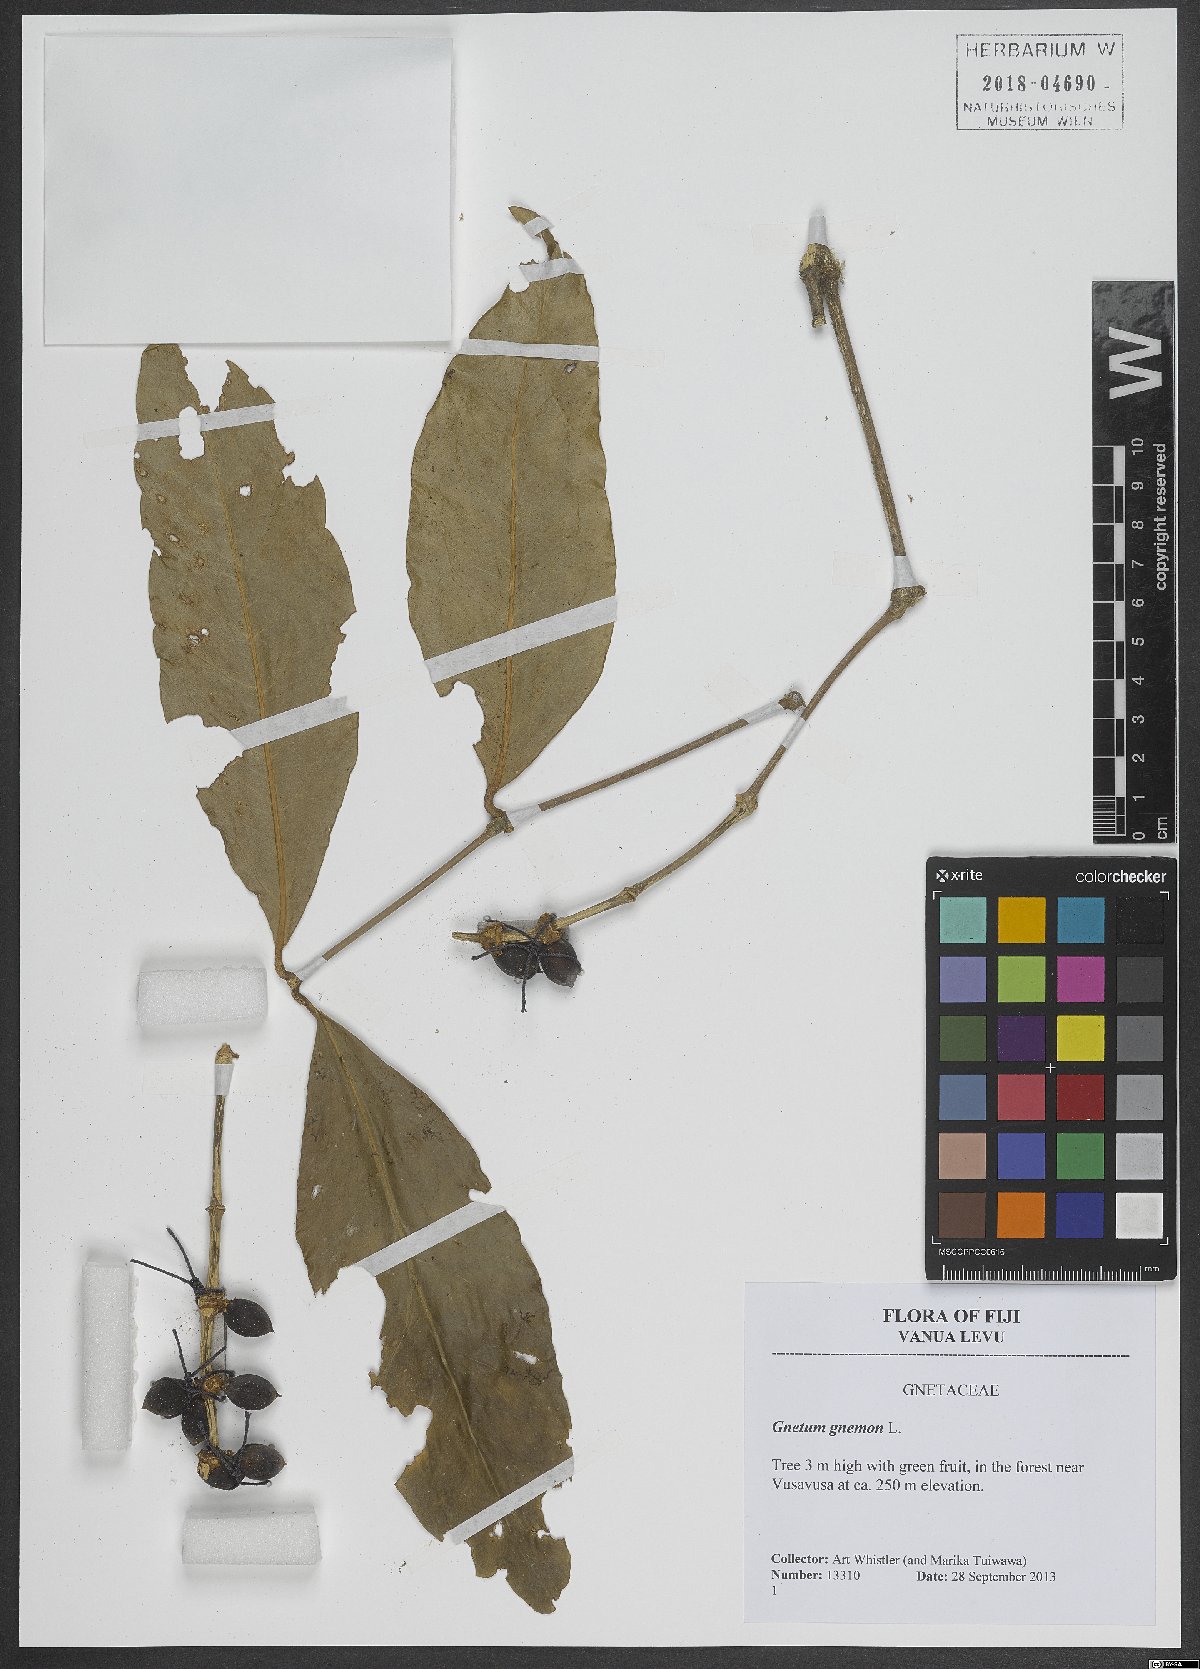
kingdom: Plantae
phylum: Tracheophyta
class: Gnetopsida
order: Gnetales
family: Gnetaceae
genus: Gnetum
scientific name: Gnetum gnemon
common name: Spanish joint-fir
